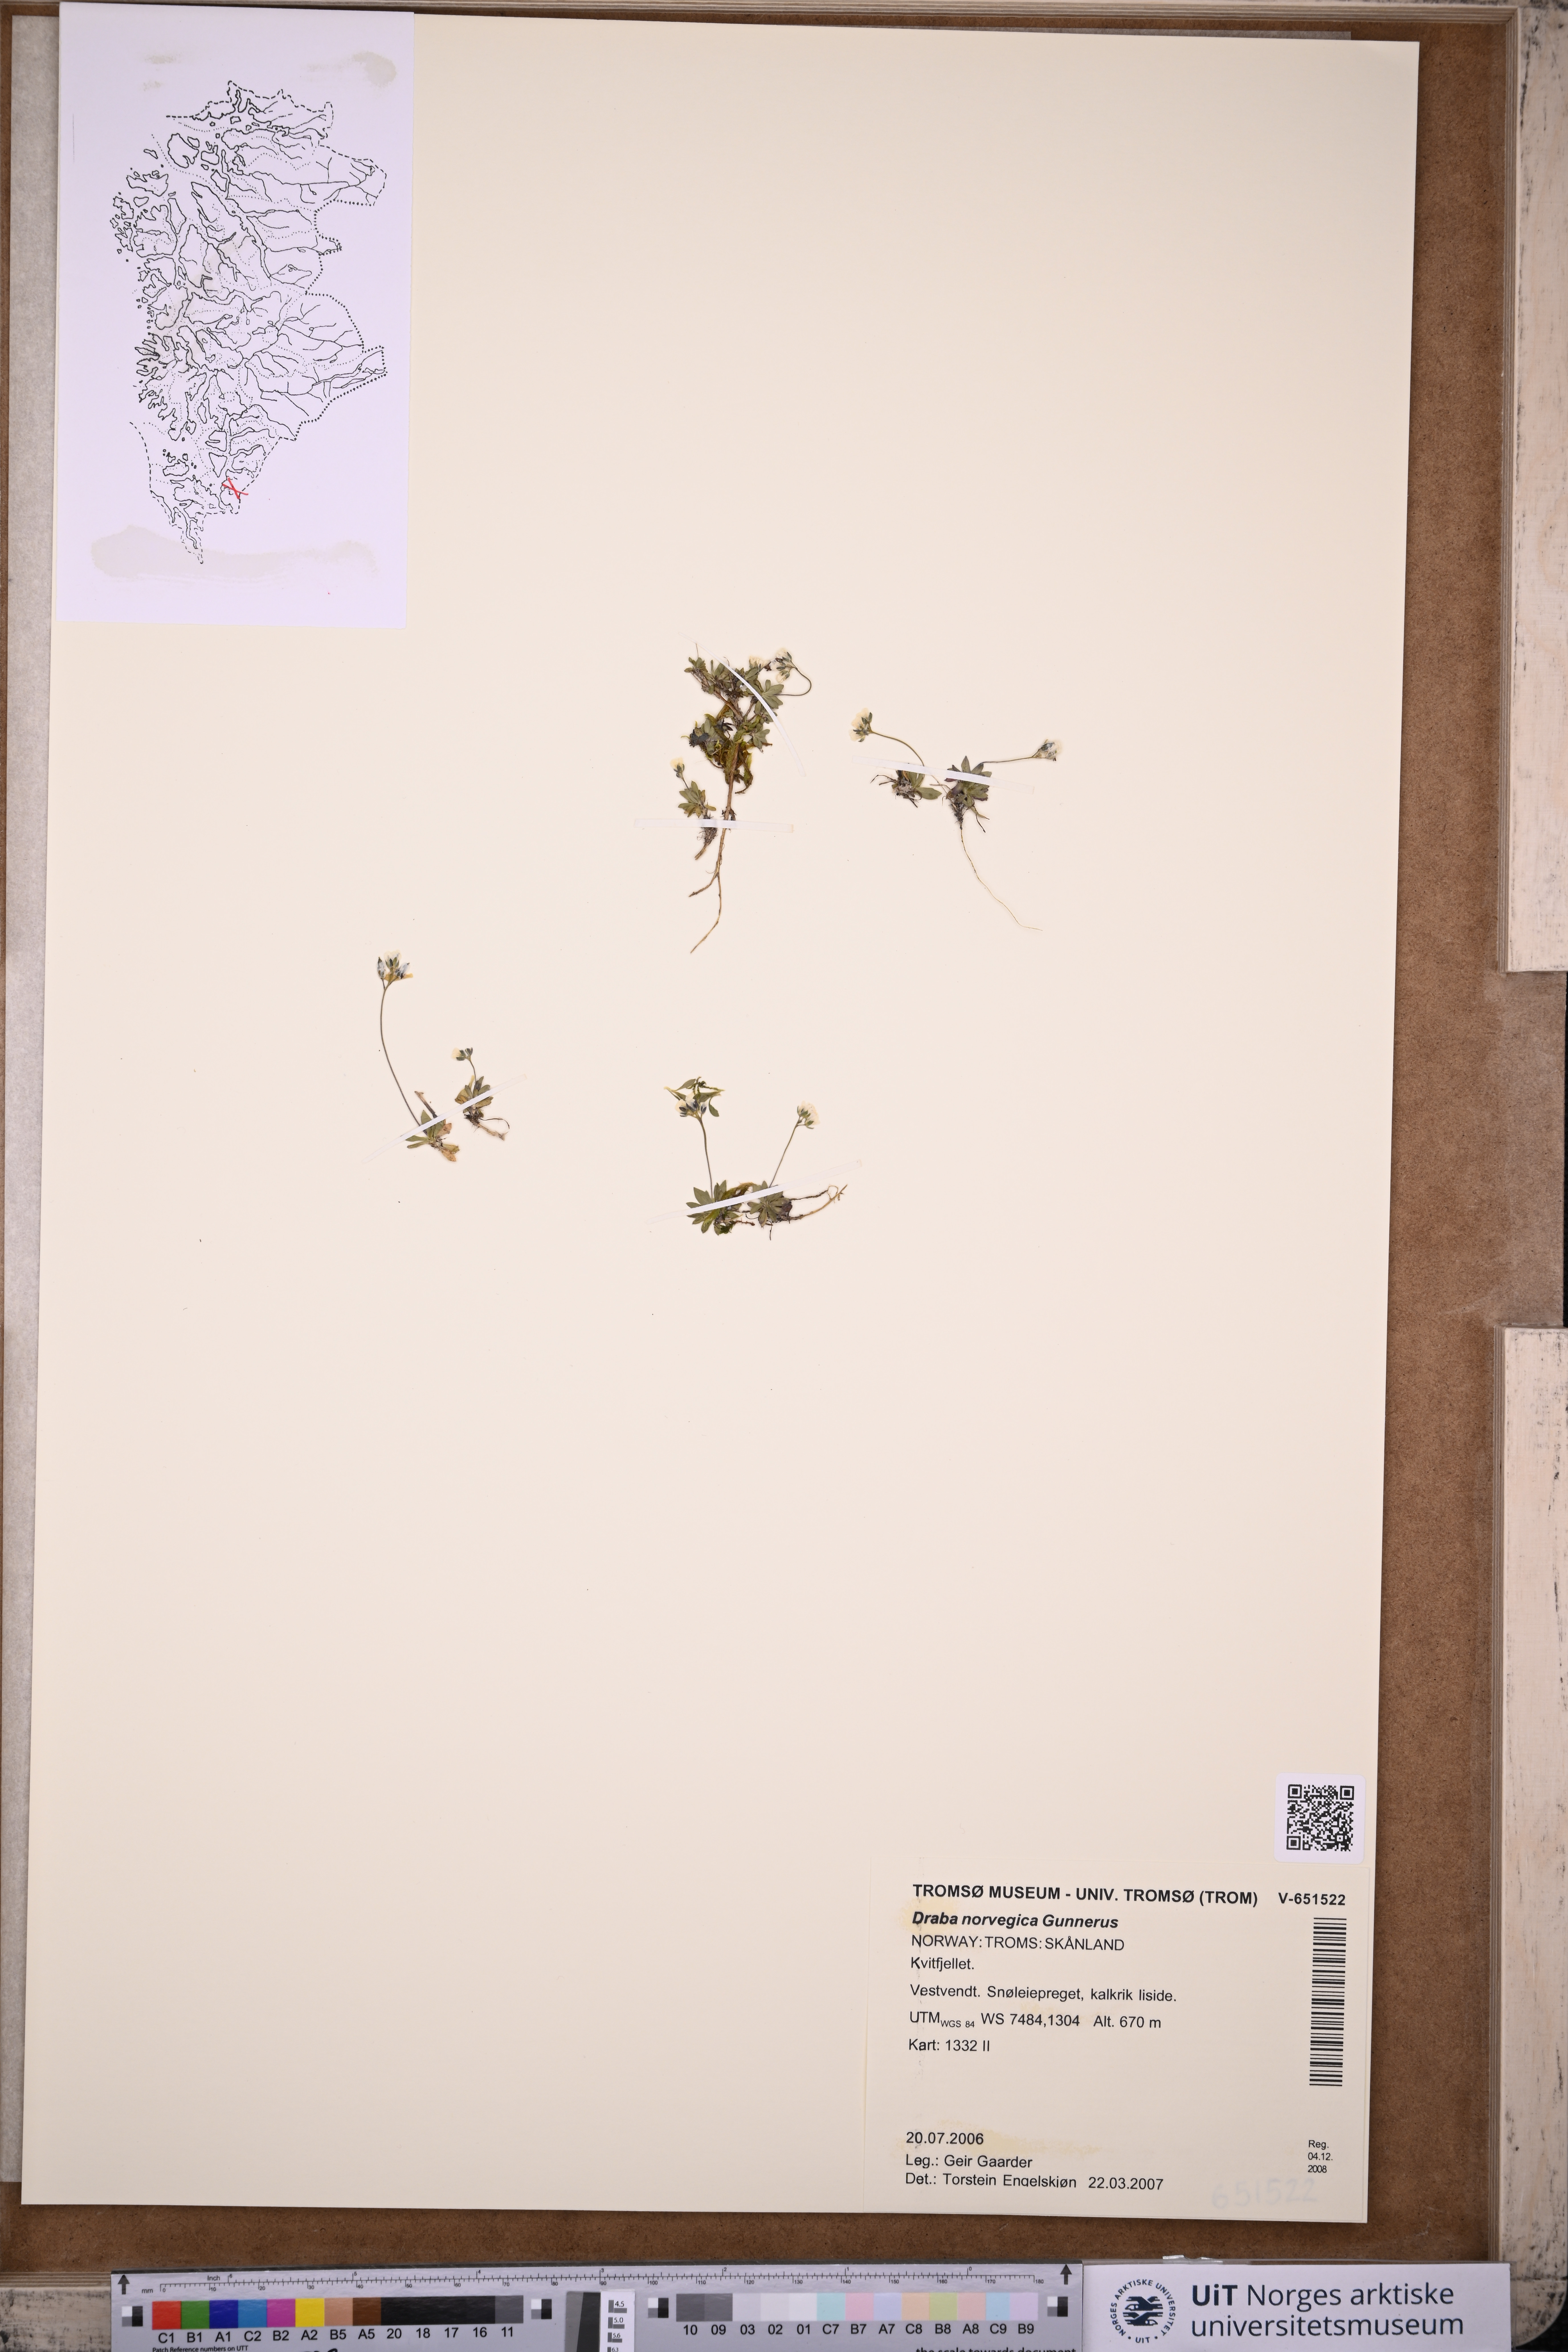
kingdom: Plantae
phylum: Tracheophyta
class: Magnoliopsida
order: Brassicales
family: Brassicaceae
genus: Draba
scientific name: Draba norvegica
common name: Rock whitlowgrass
